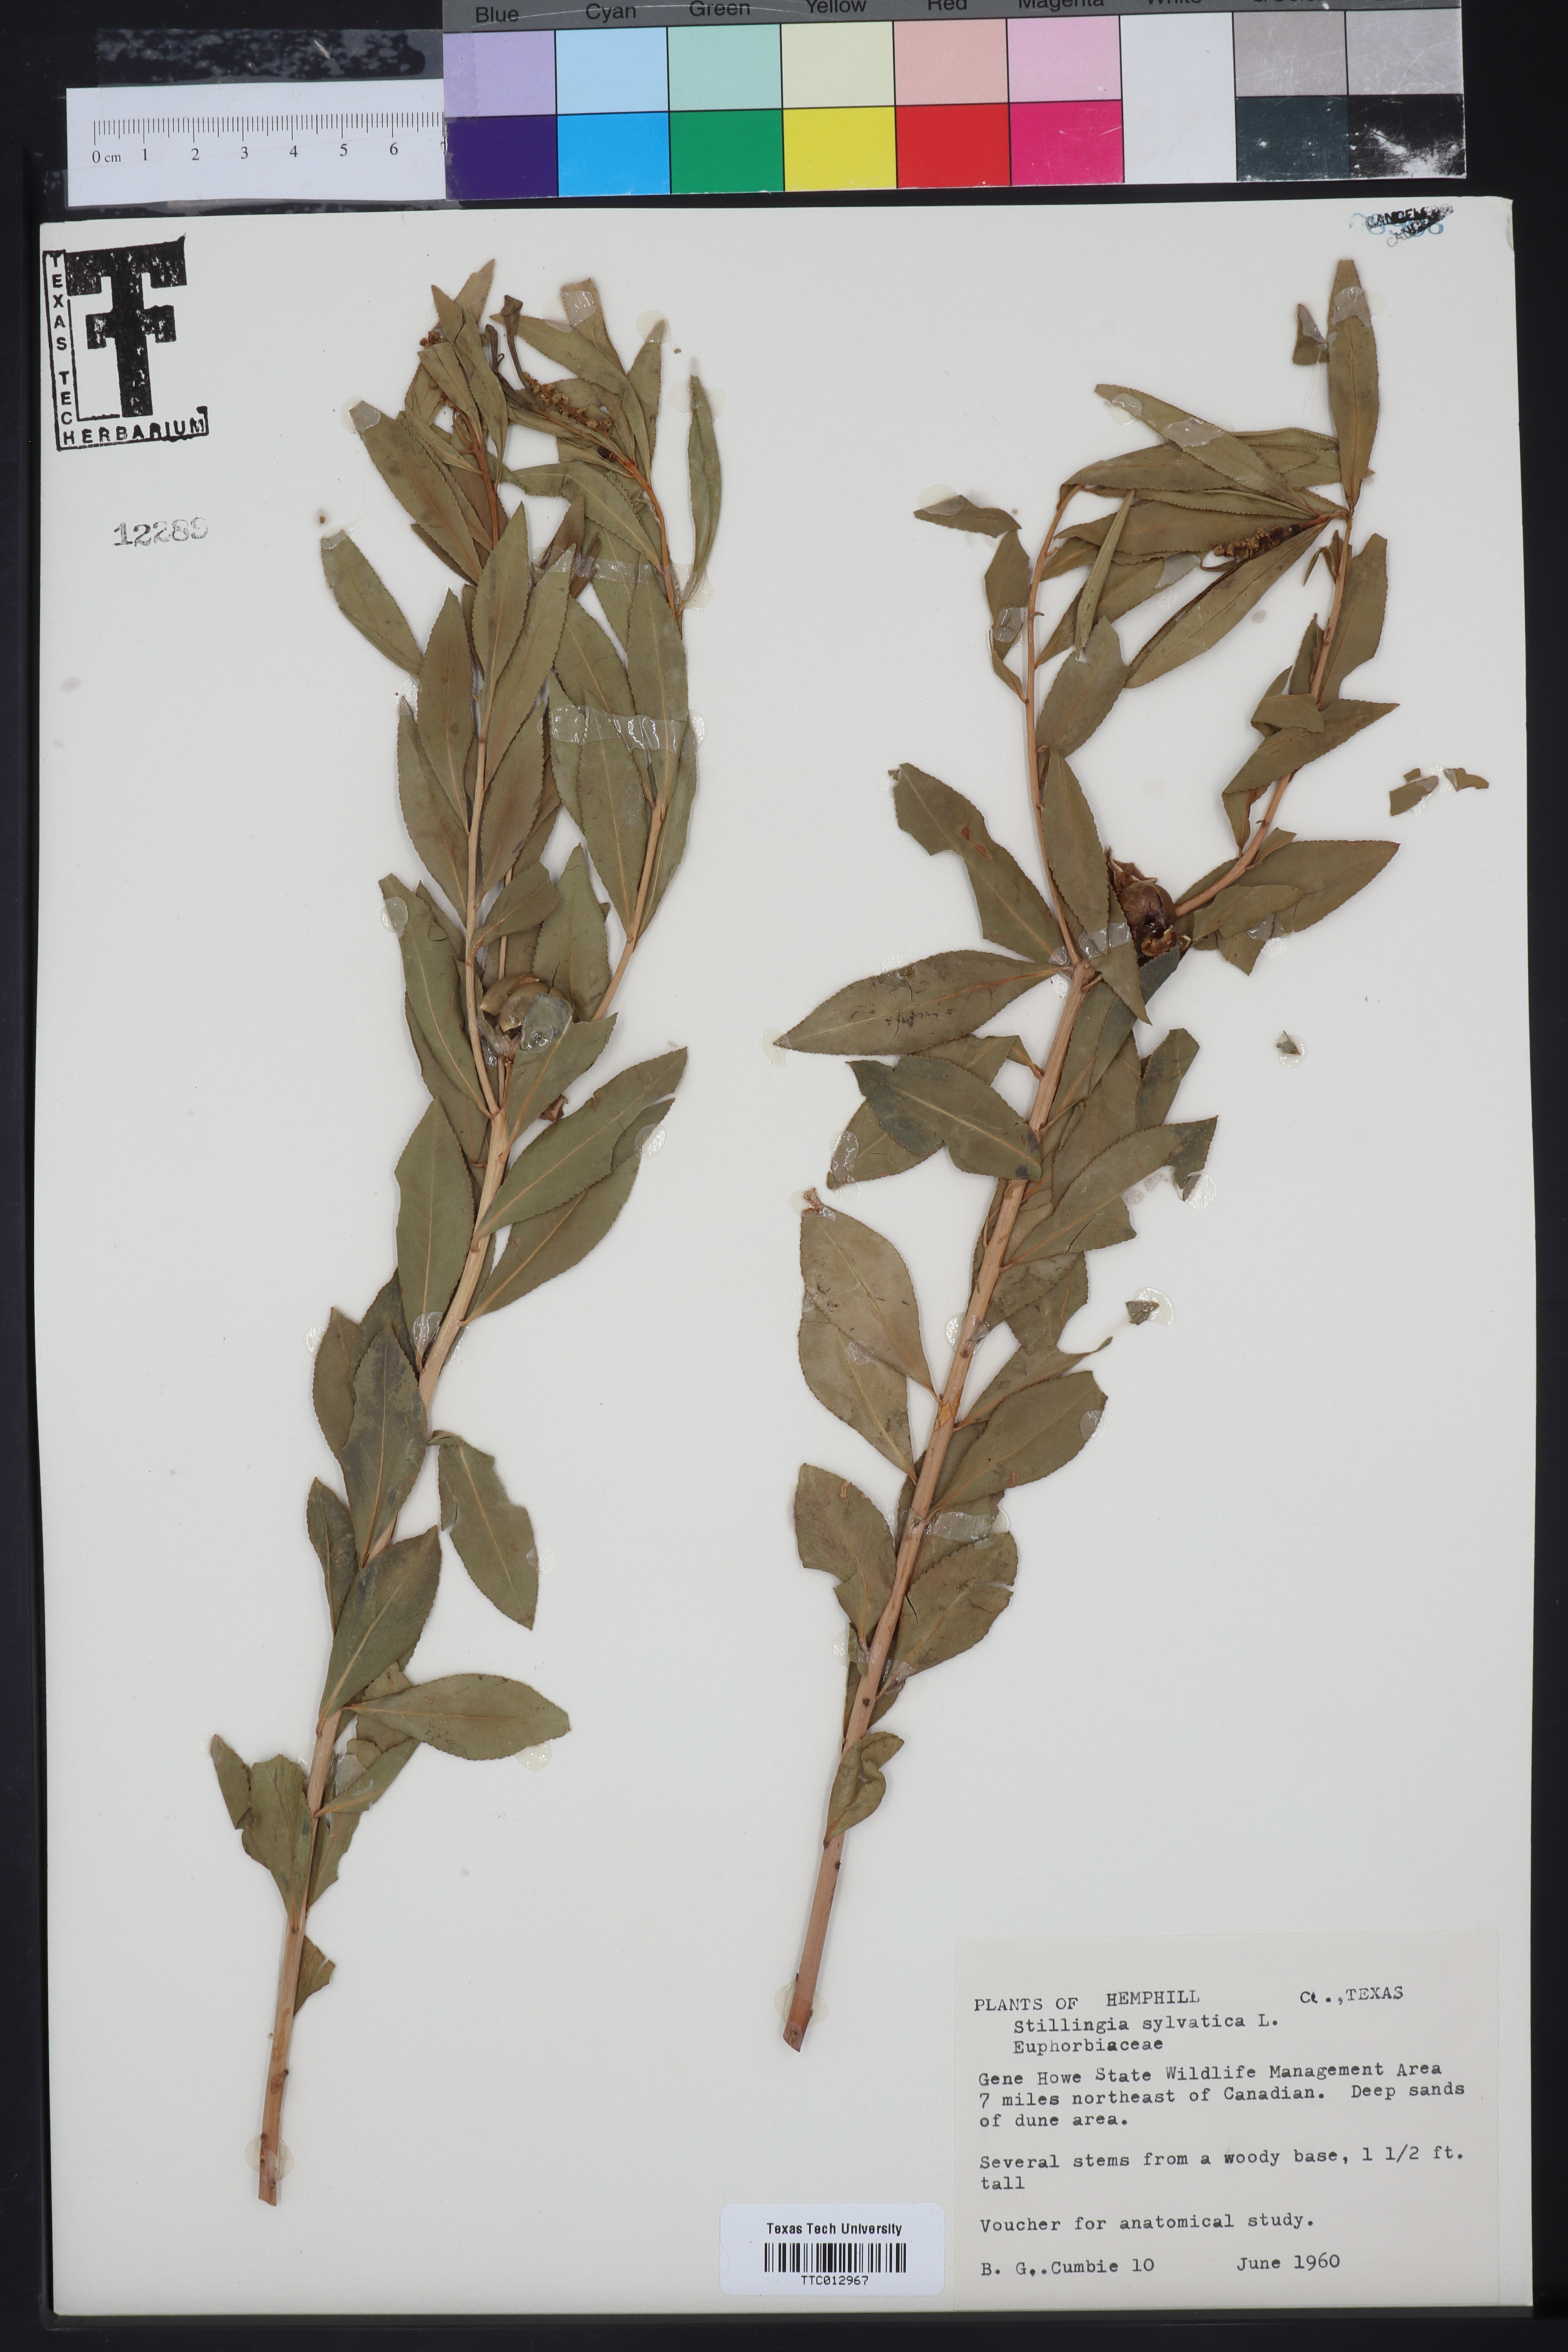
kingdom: Plantae
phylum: Tracheophyta
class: Magnoliopsida
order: Malpighiales
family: Euphorbiaceae
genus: Stillingia
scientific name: Stillingia sylvatica
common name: Queen's-delight
